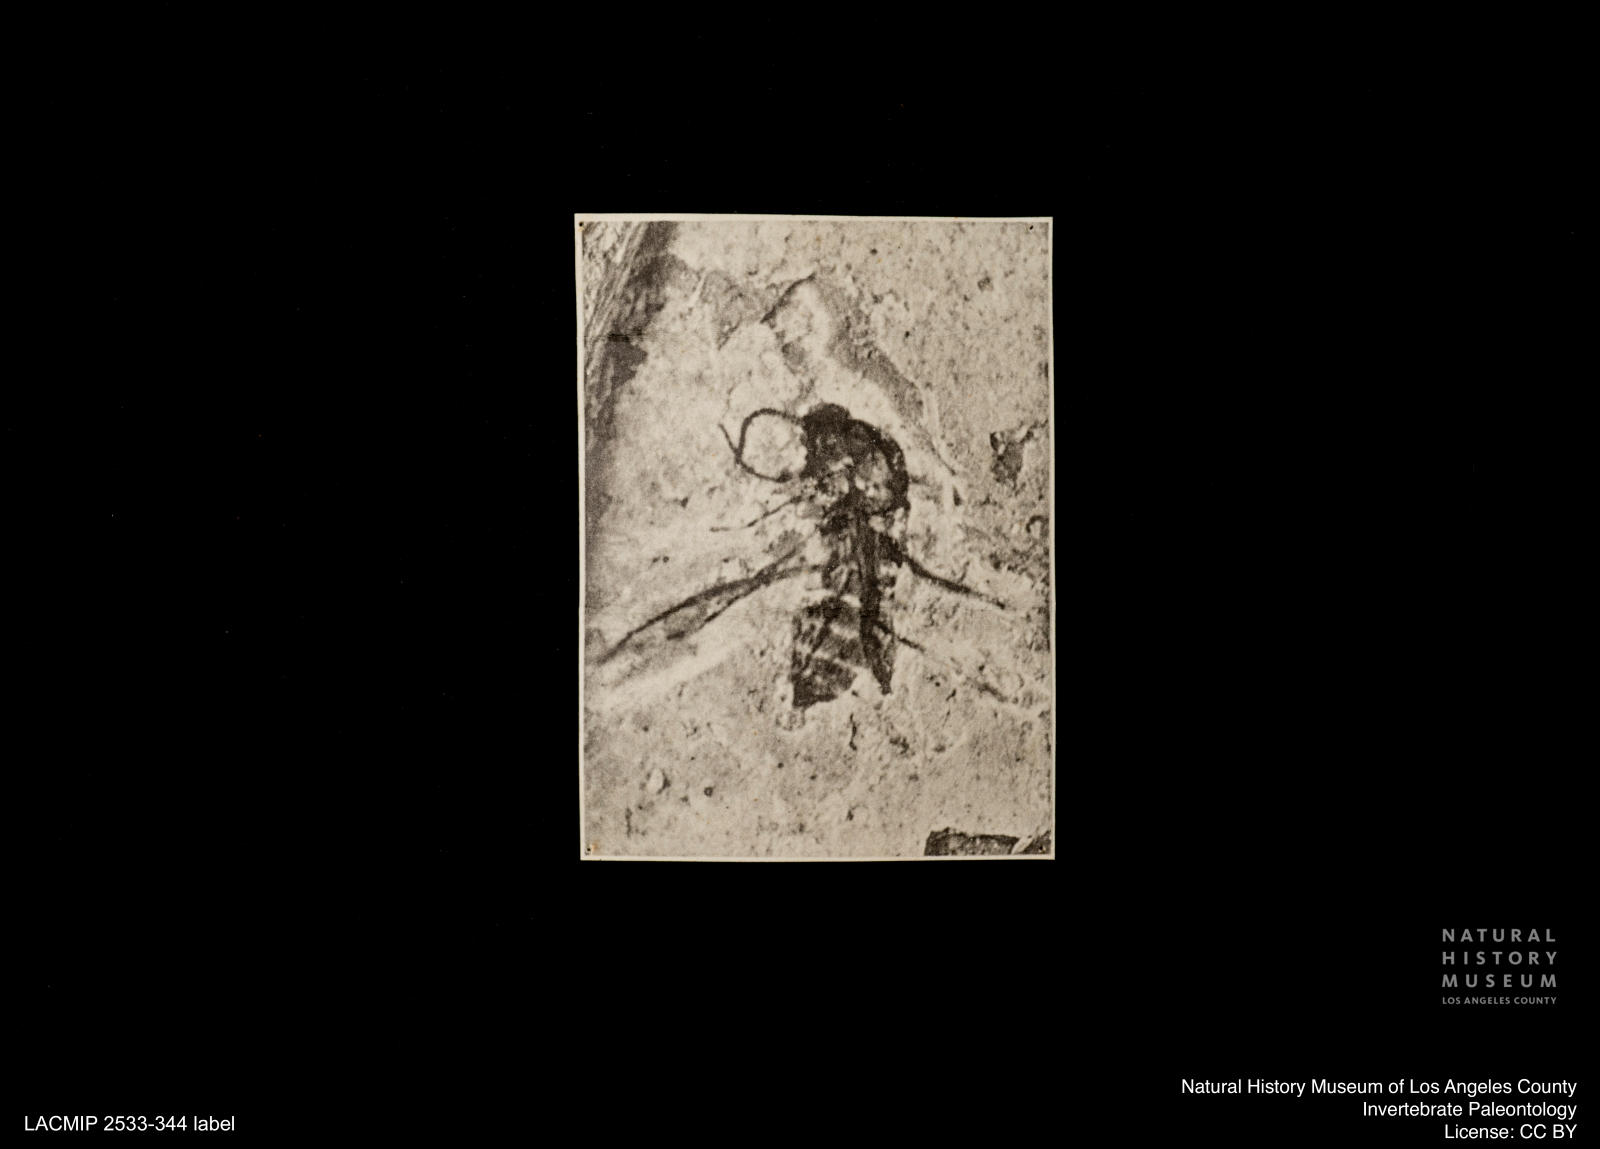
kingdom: Animalia
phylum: Arthropoda
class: Insecta
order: Diptera
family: Ceratopogonidae
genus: Culicoides
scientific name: Culicoides austerus
